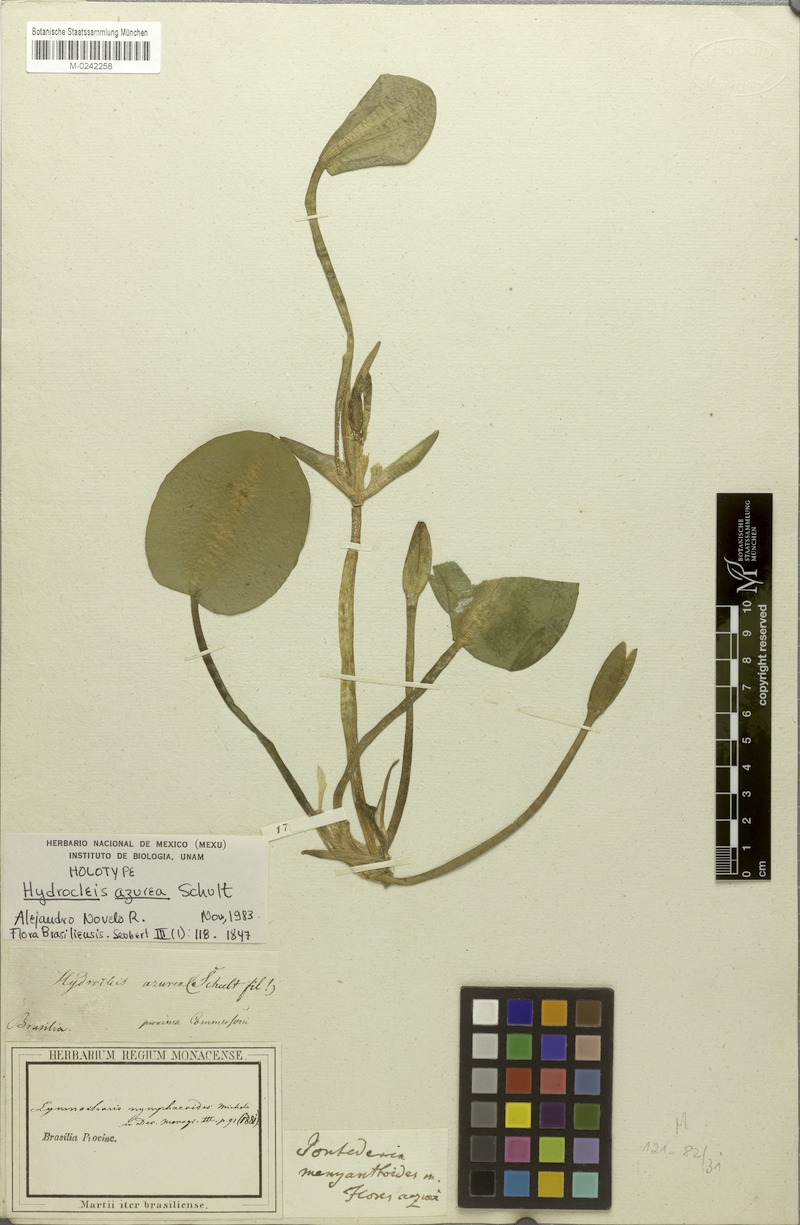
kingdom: Plantae
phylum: Tracheophyta
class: Liliopsida
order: Alismatales
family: Alismataceae
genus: Hydrocleys
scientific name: Hydrocleys nymphoides
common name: Water-poppy
